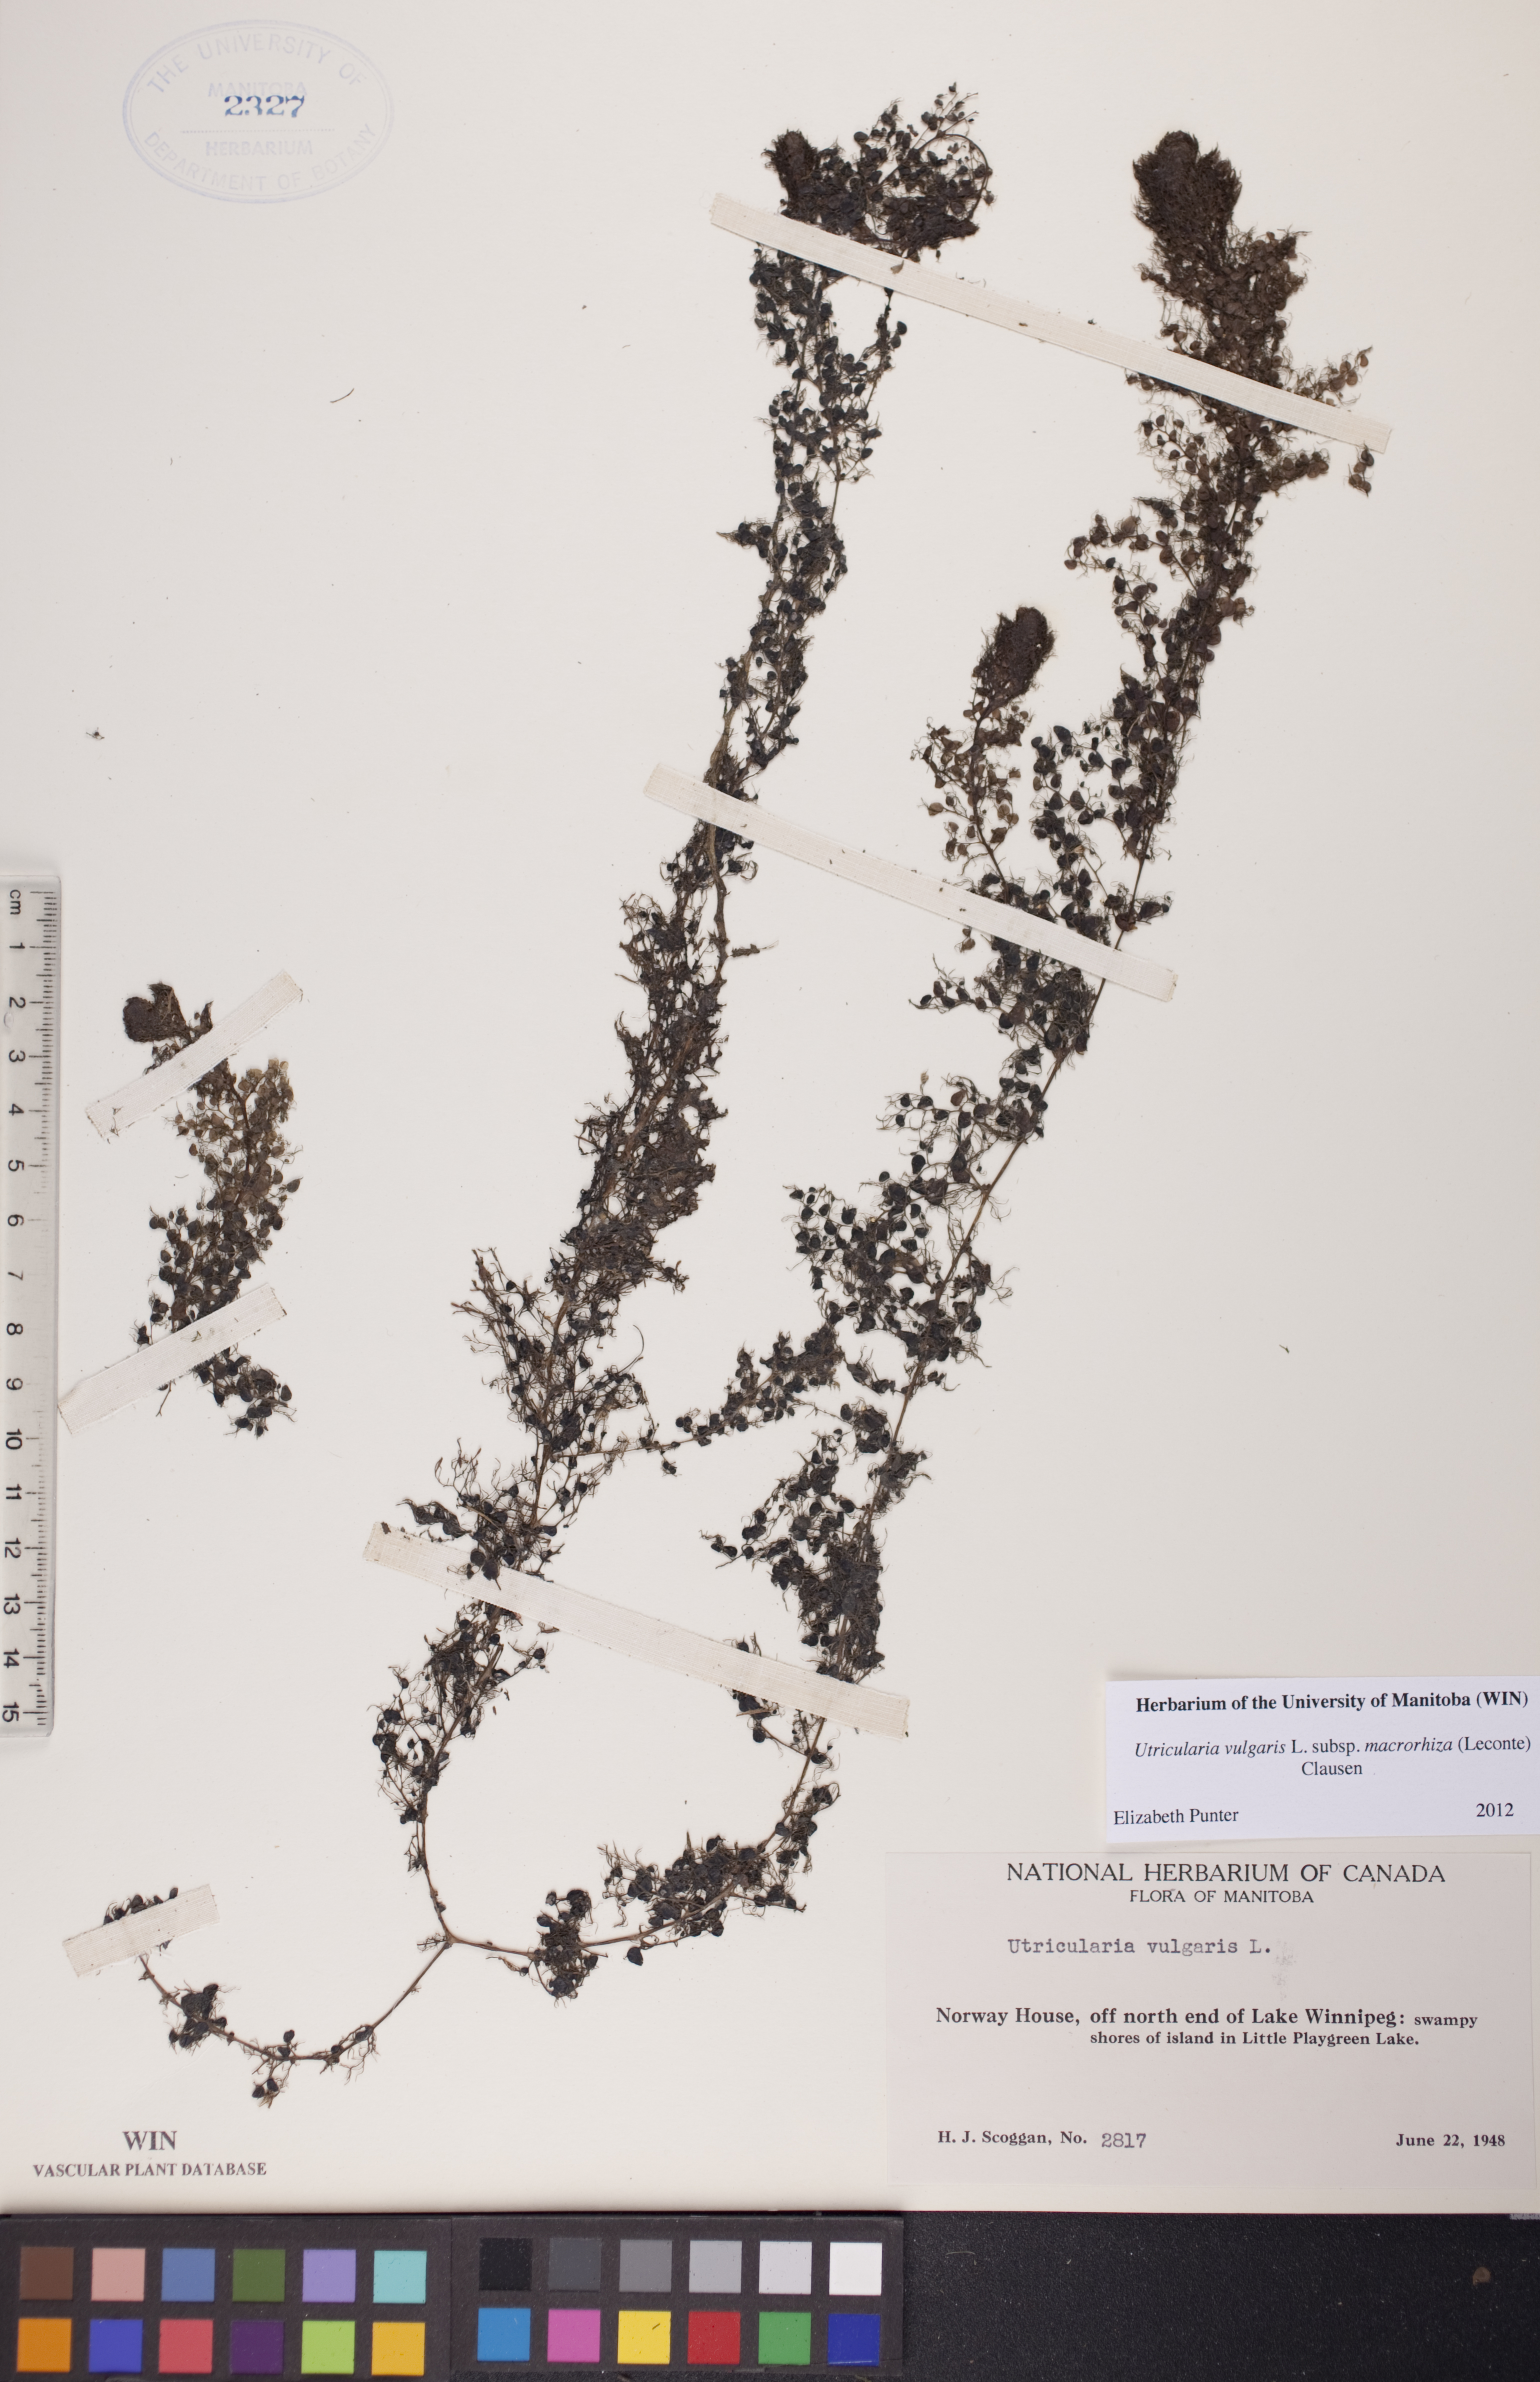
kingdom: Plantae
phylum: Tracheophyta
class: Magnoliopsida
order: Lamiales
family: Lentibulariaceae
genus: Utricularia
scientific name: Utricularia macrorhiza
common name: Common bladderwort
